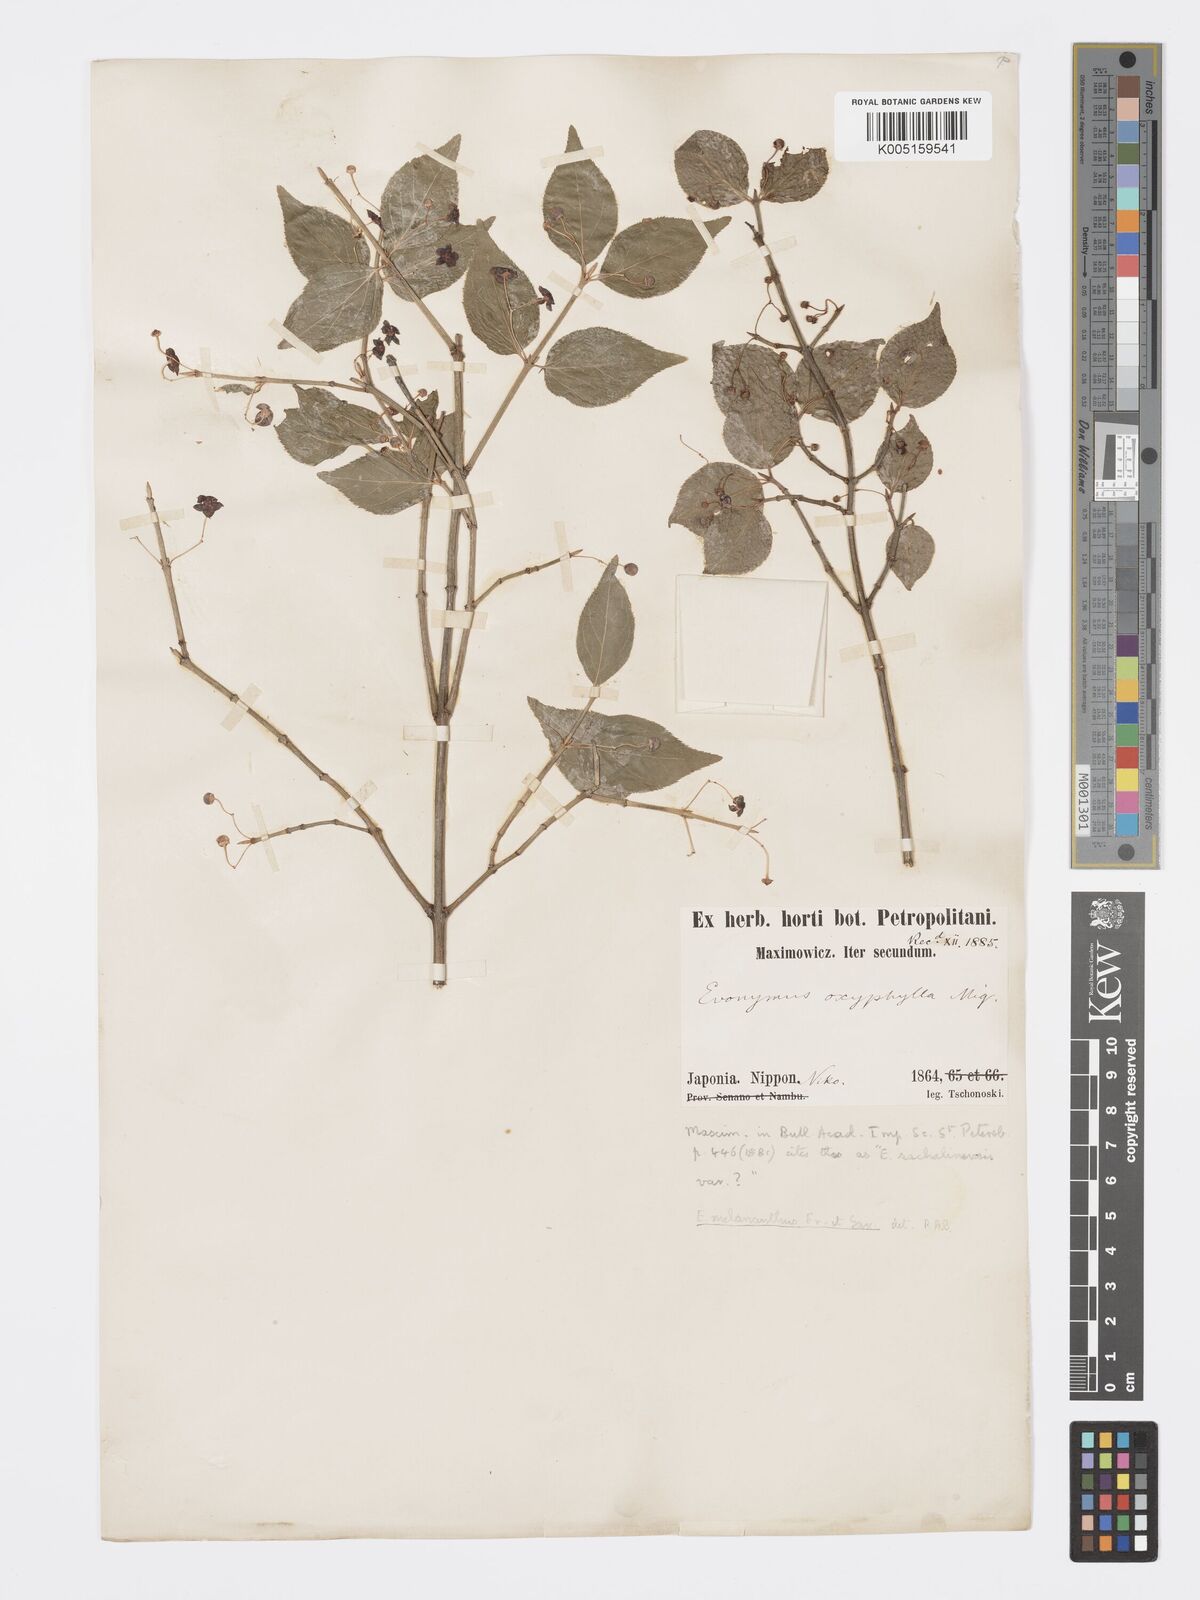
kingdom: Plantae
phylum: Tracheophyta
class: Magnoliopsida
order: Celastrales
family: Celastraceae
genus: Euonymus
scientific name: Euonymus melananthus
